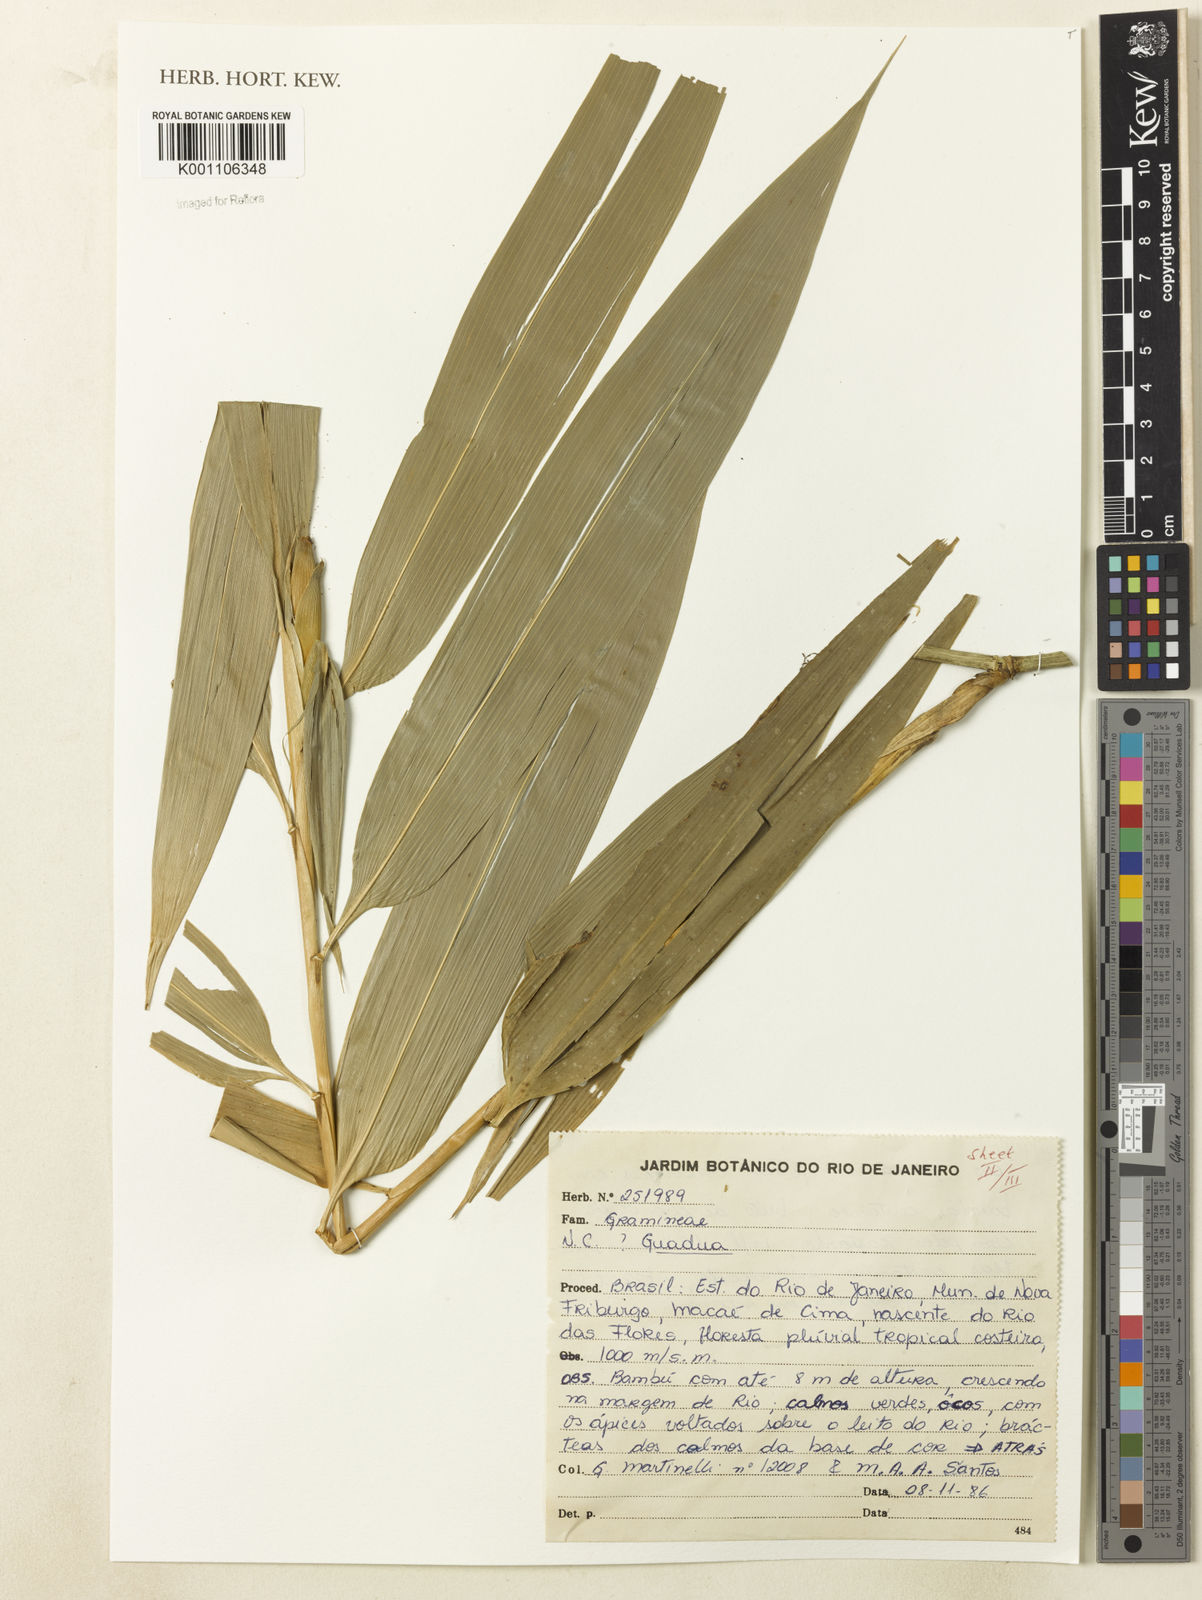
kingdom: Plantae
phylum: Tracheophyta
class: Liliopsida
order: Poales
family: Poaceae
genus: Guadua
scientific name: Guadua tagoara
